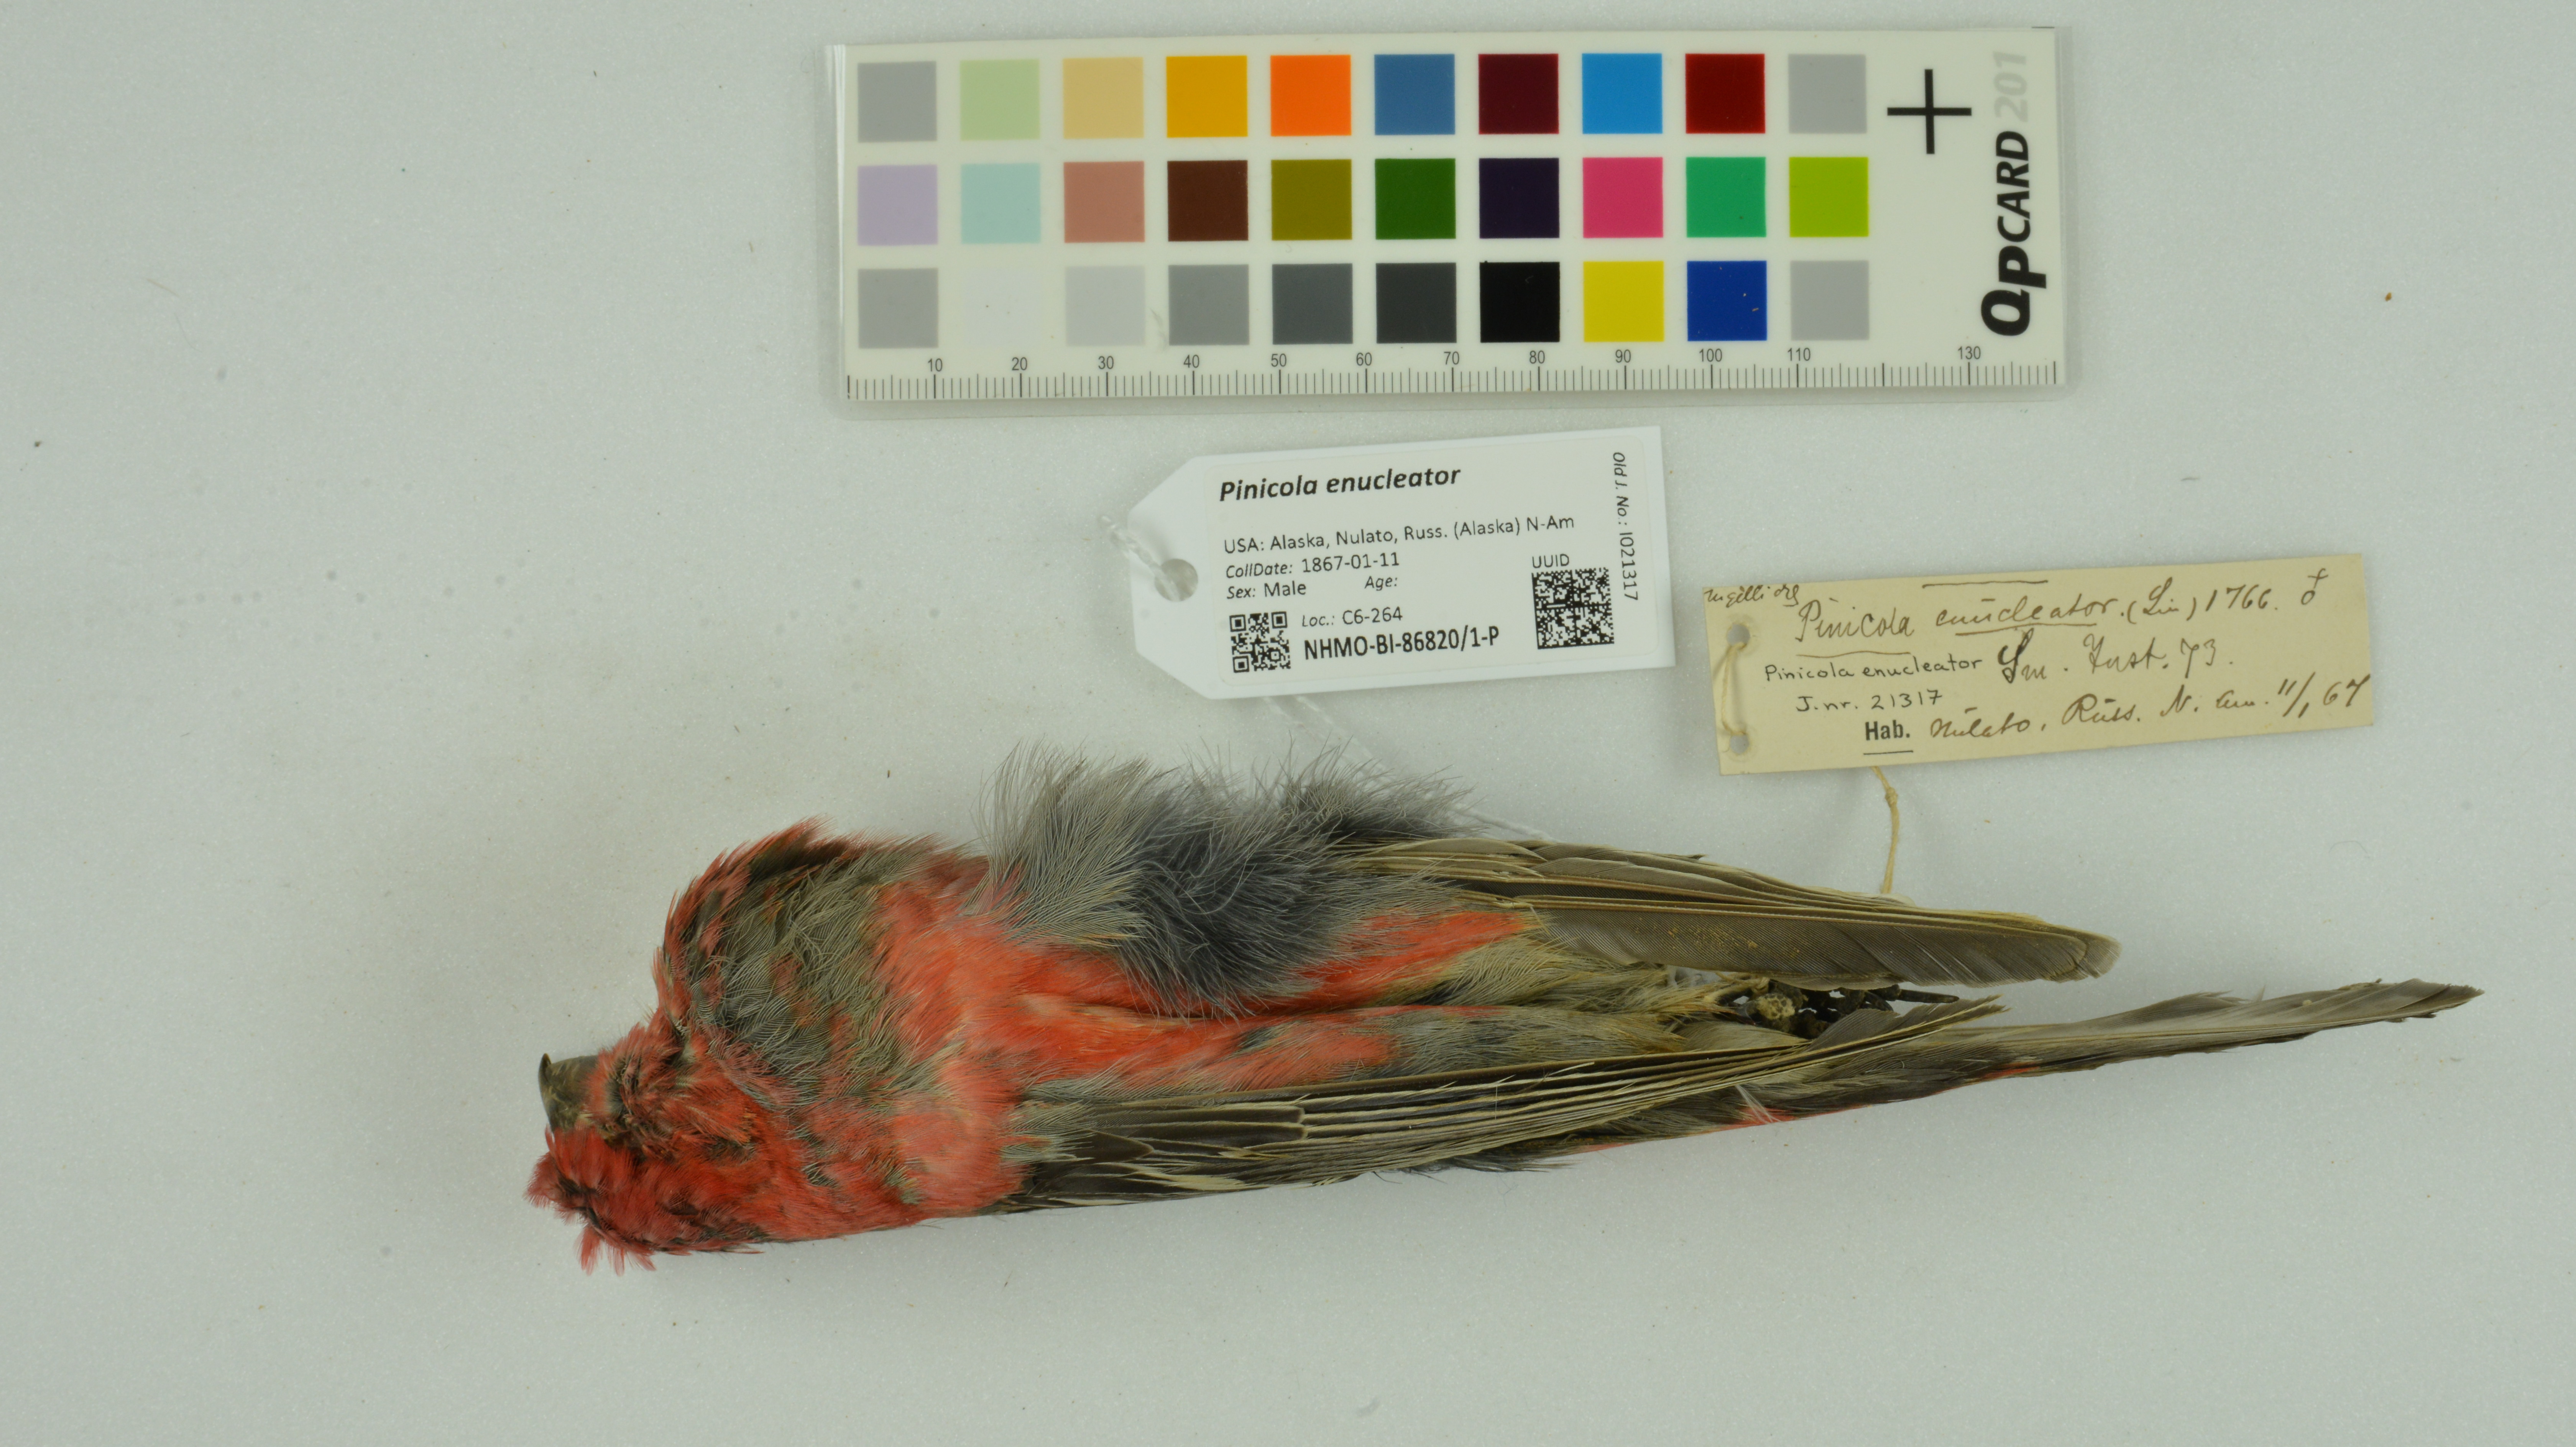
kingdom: Animalia
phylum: Chordata
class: Aves
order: Passeriformes
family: Fringillidae
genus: Pinicola
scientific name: Pinicola enucleator
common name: Pine grosbeak
